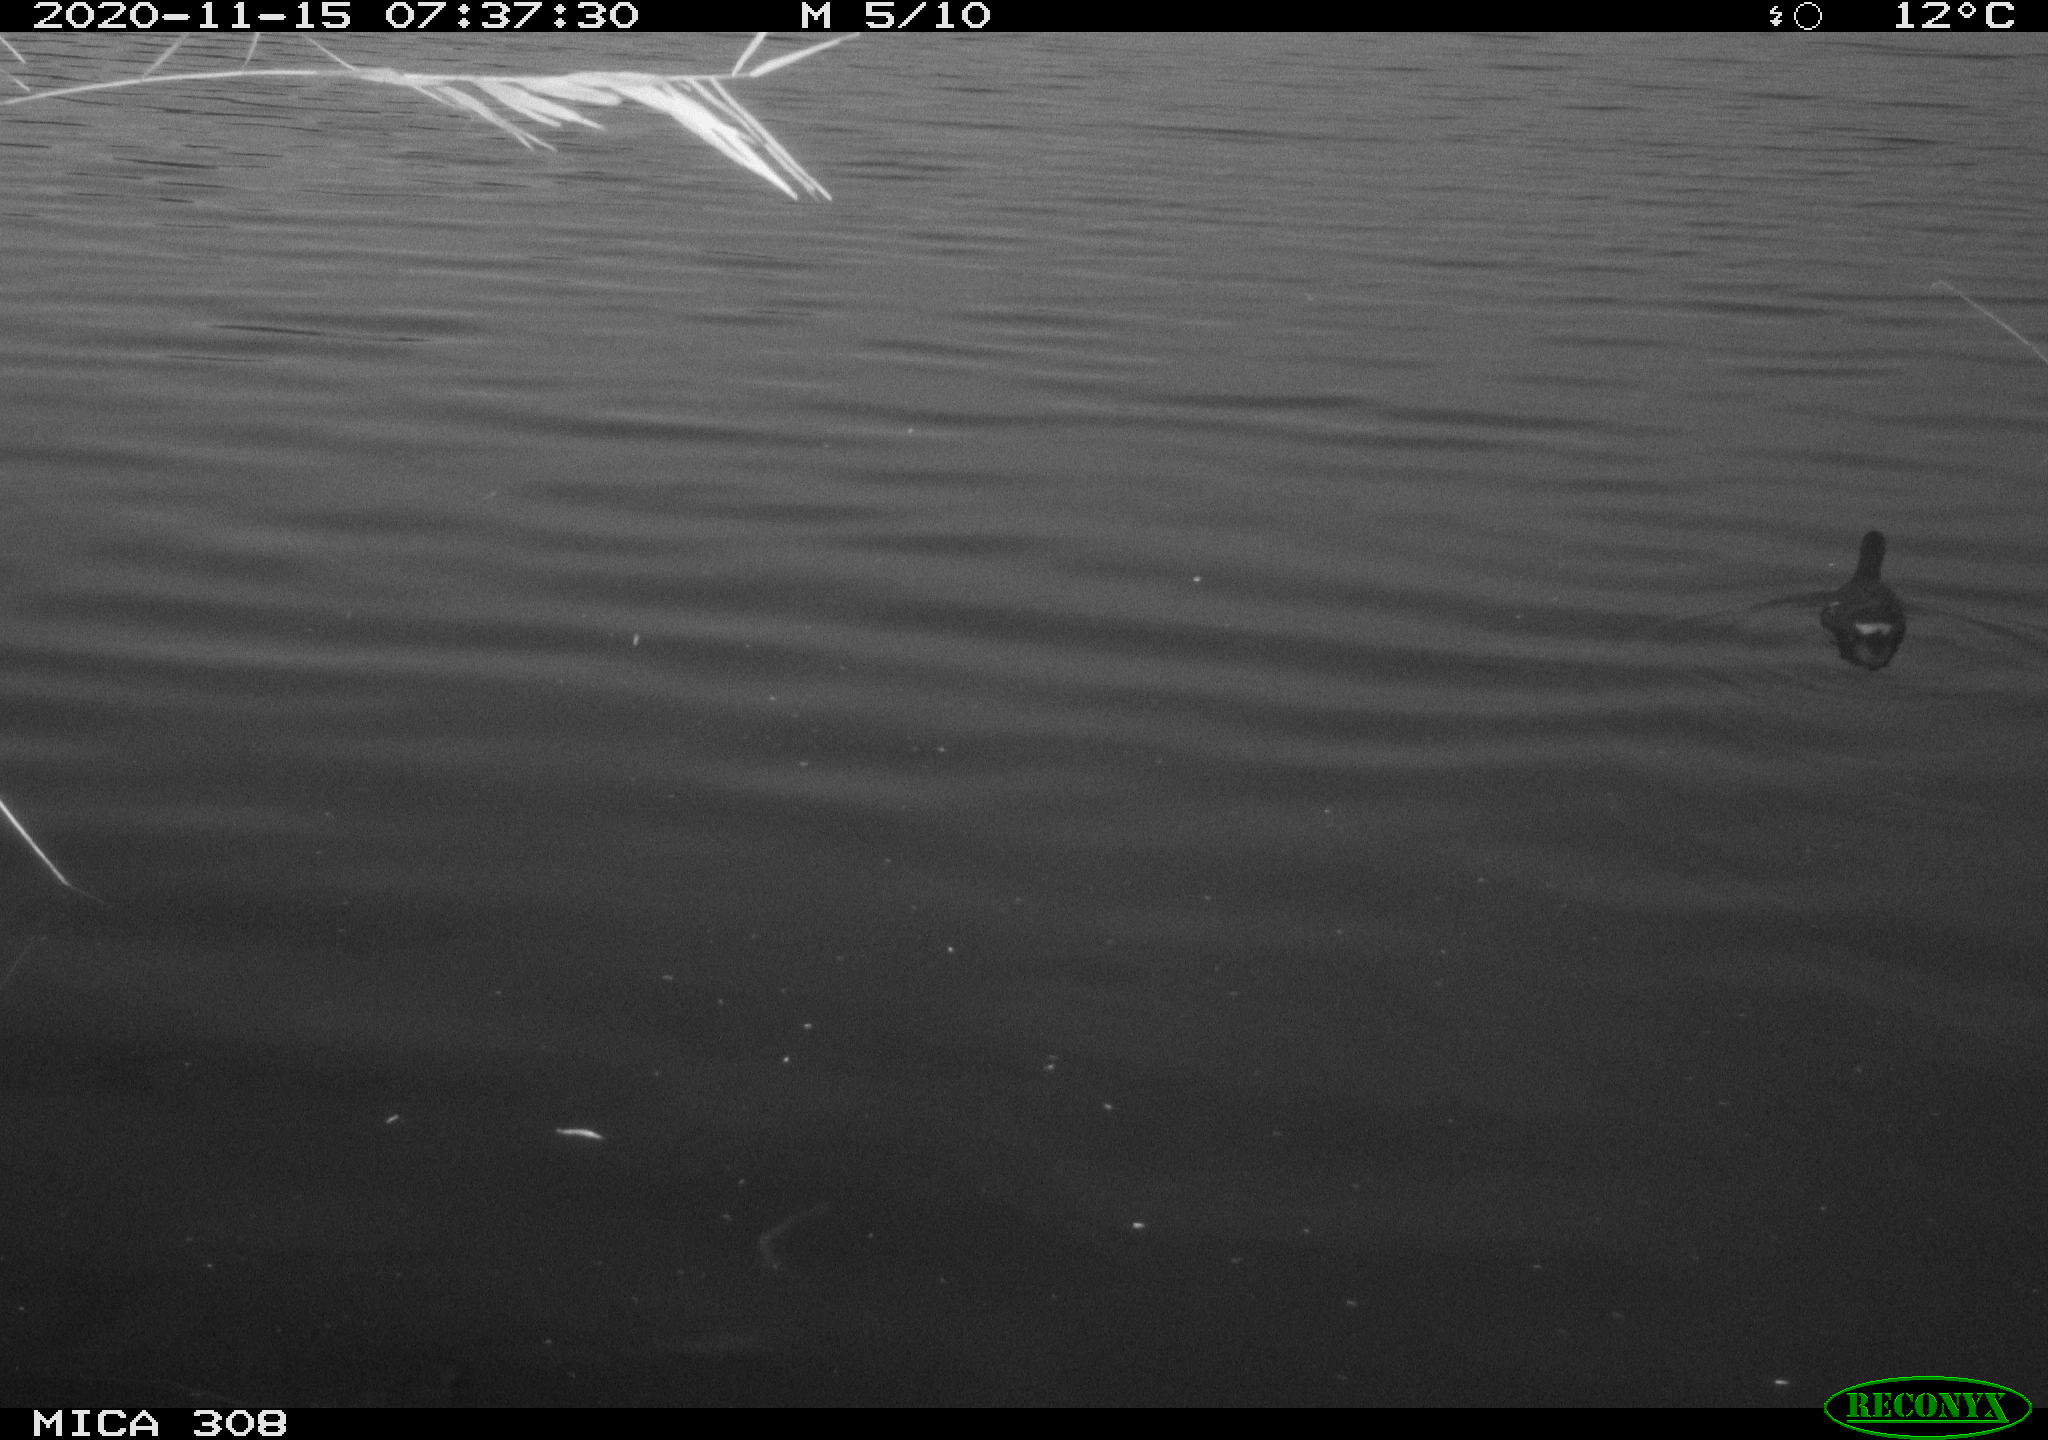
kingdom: Animalia
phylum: Chordata
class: Aves
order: Gruiformes
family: Rallidae
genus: Fulica
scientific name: Fulica atra
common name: Eurasian coot
